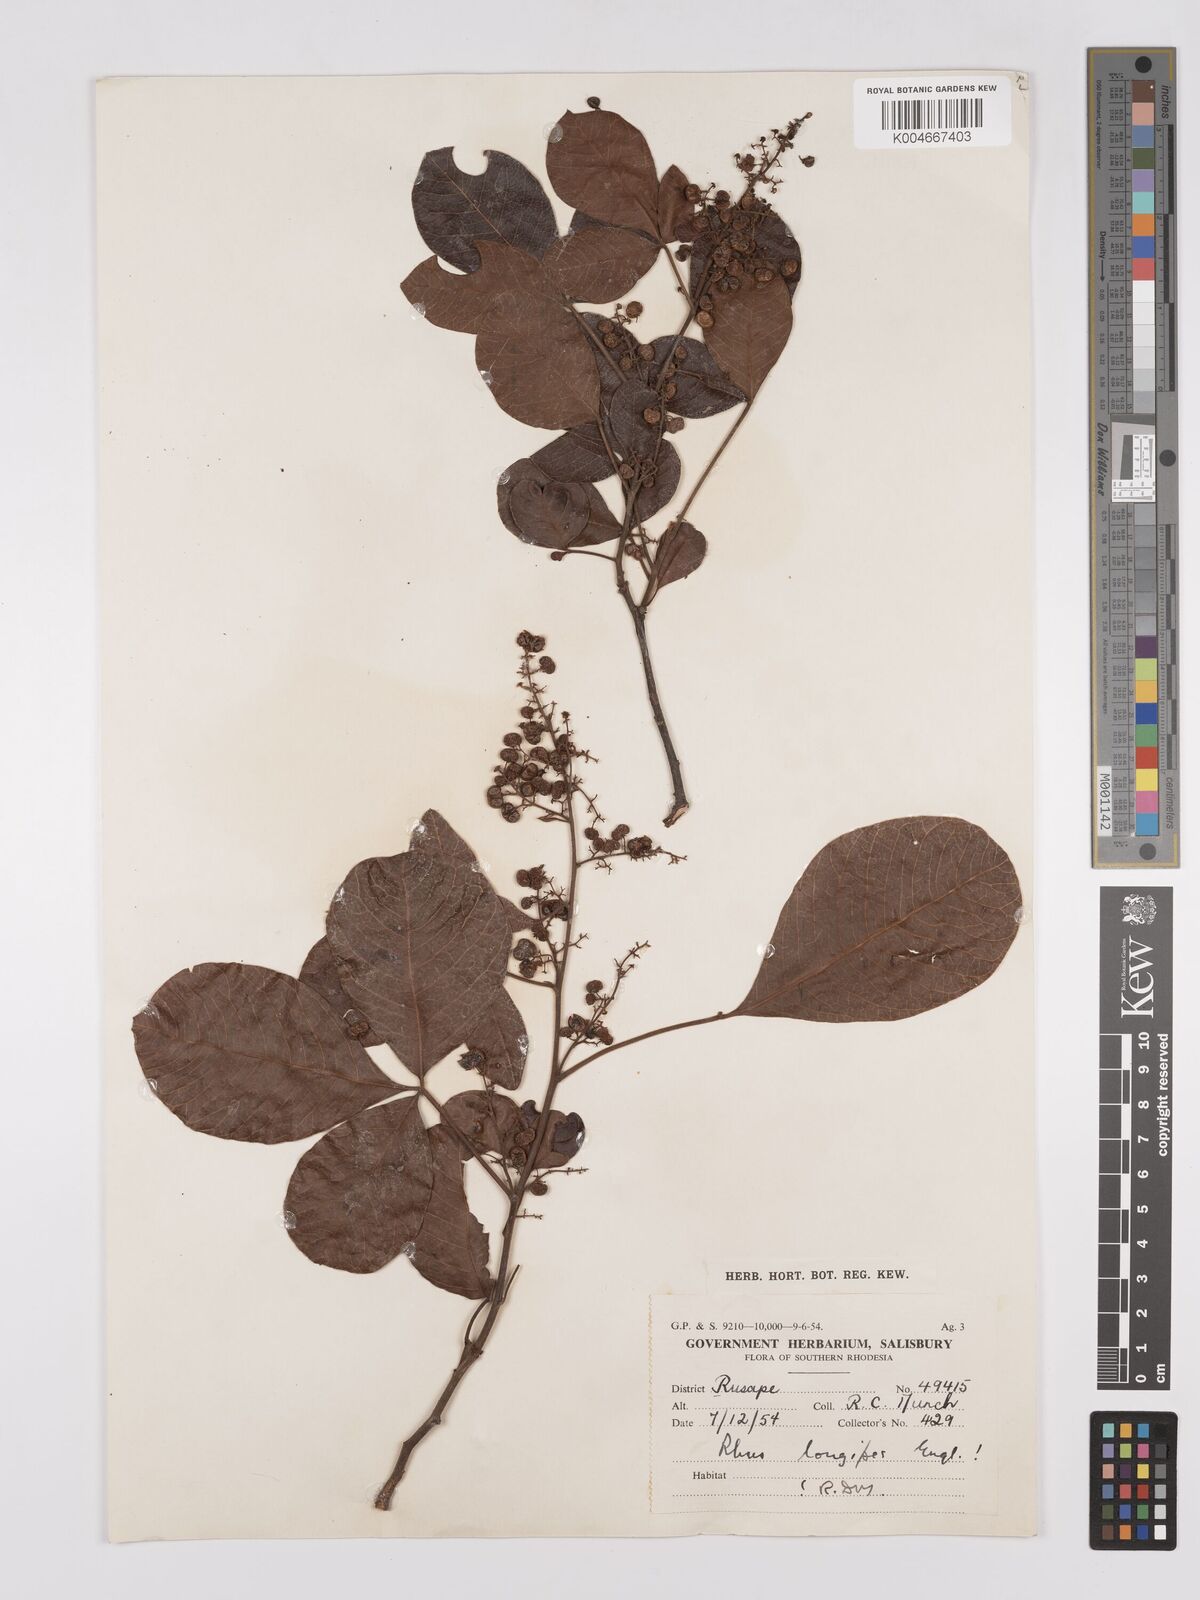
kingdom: Plantae
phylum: Tracheophyta
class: Magnoliopsida
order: Sapindales
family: Anacardiaceae
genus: Searsia
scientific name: Searsia longipes
